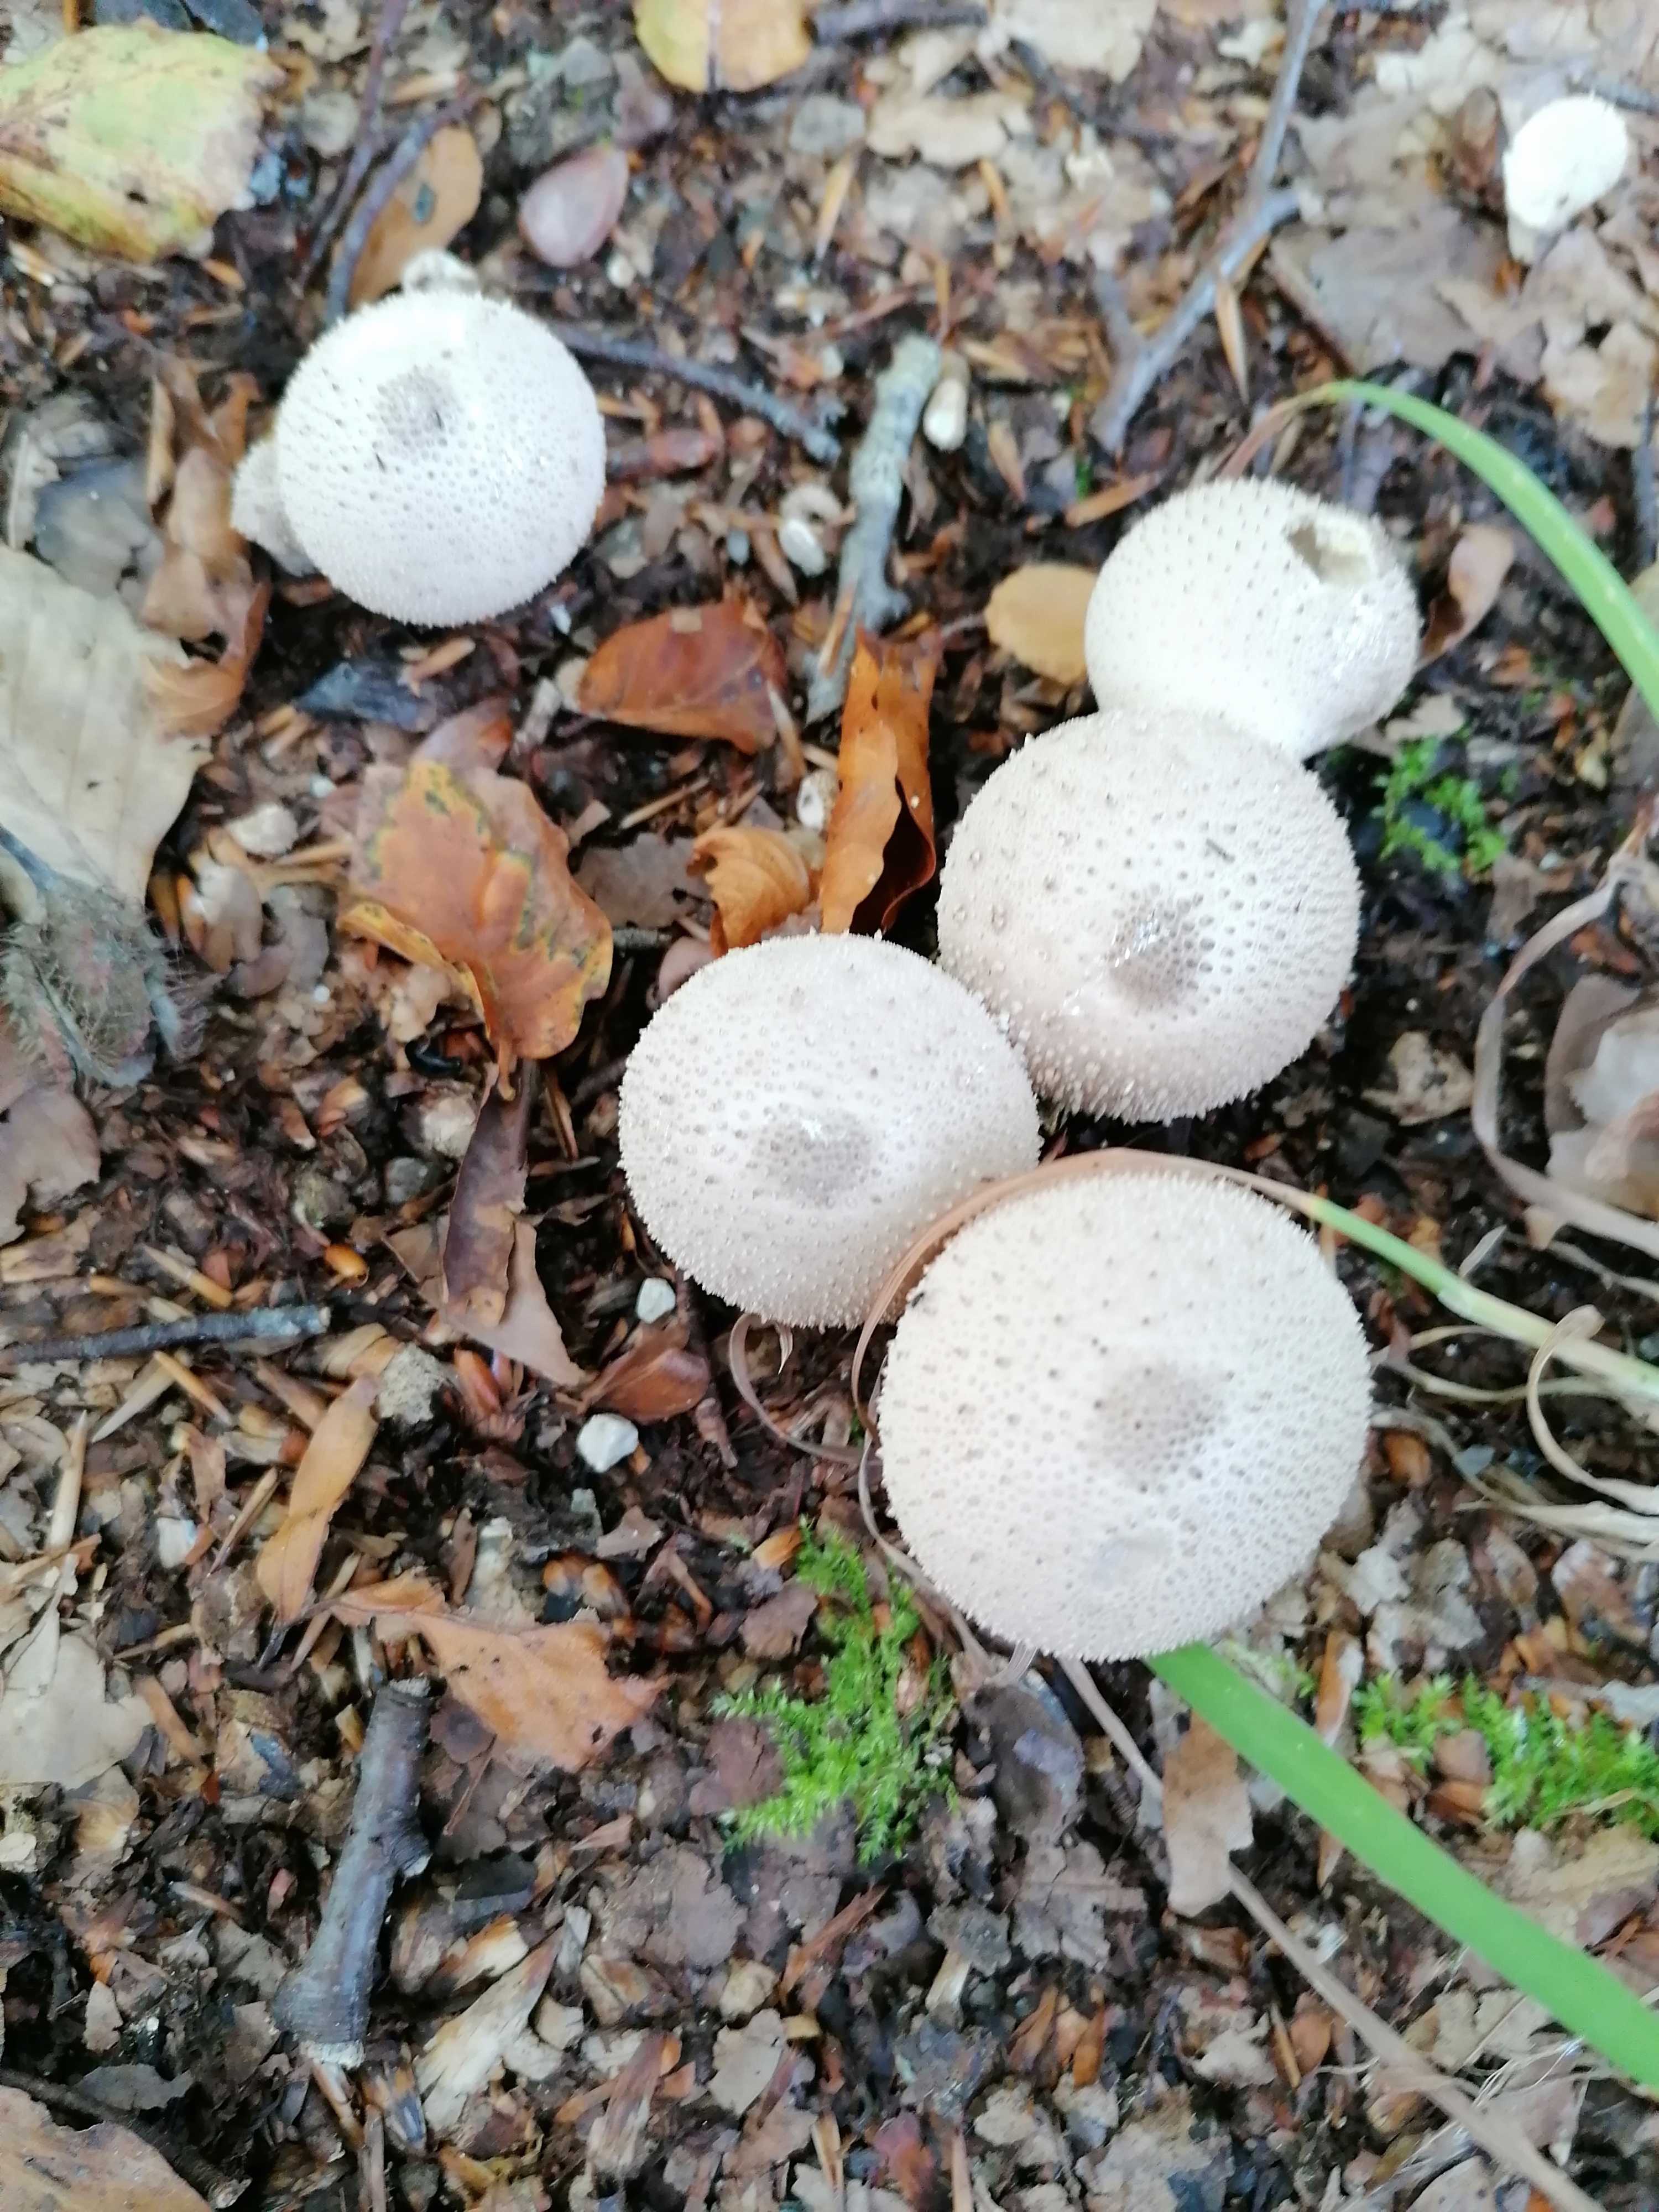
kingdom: Fungi
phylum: Basidiomycota
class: Agaricomycetes
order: Agaricales
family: Lycoperdaceae
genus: Lycoperdon
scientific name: Lycoperdon perlatum
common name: krystal-støvbold
